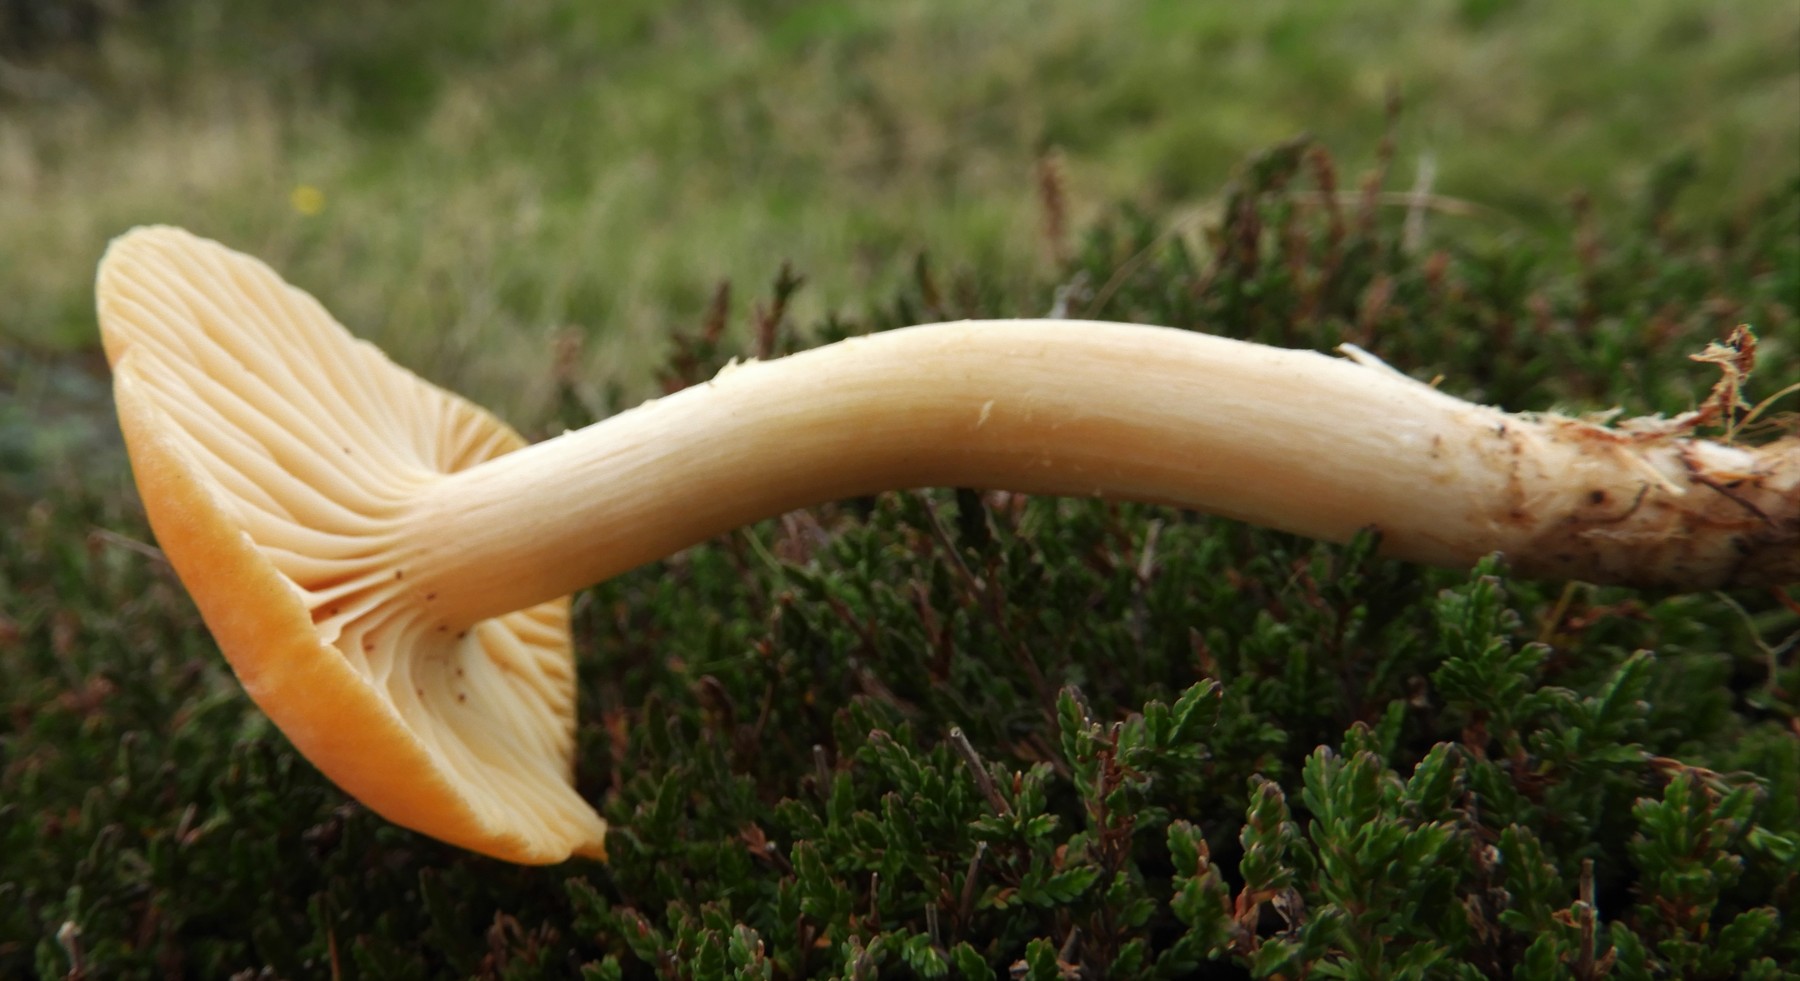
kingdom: Fungi
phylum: Basidiomycota
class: Agaricomycetes
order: Agaricales
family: Hygrophoraceae
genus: Cuphophyllus
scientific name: Cuphophyllus pratensis
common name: eng-vokshat
